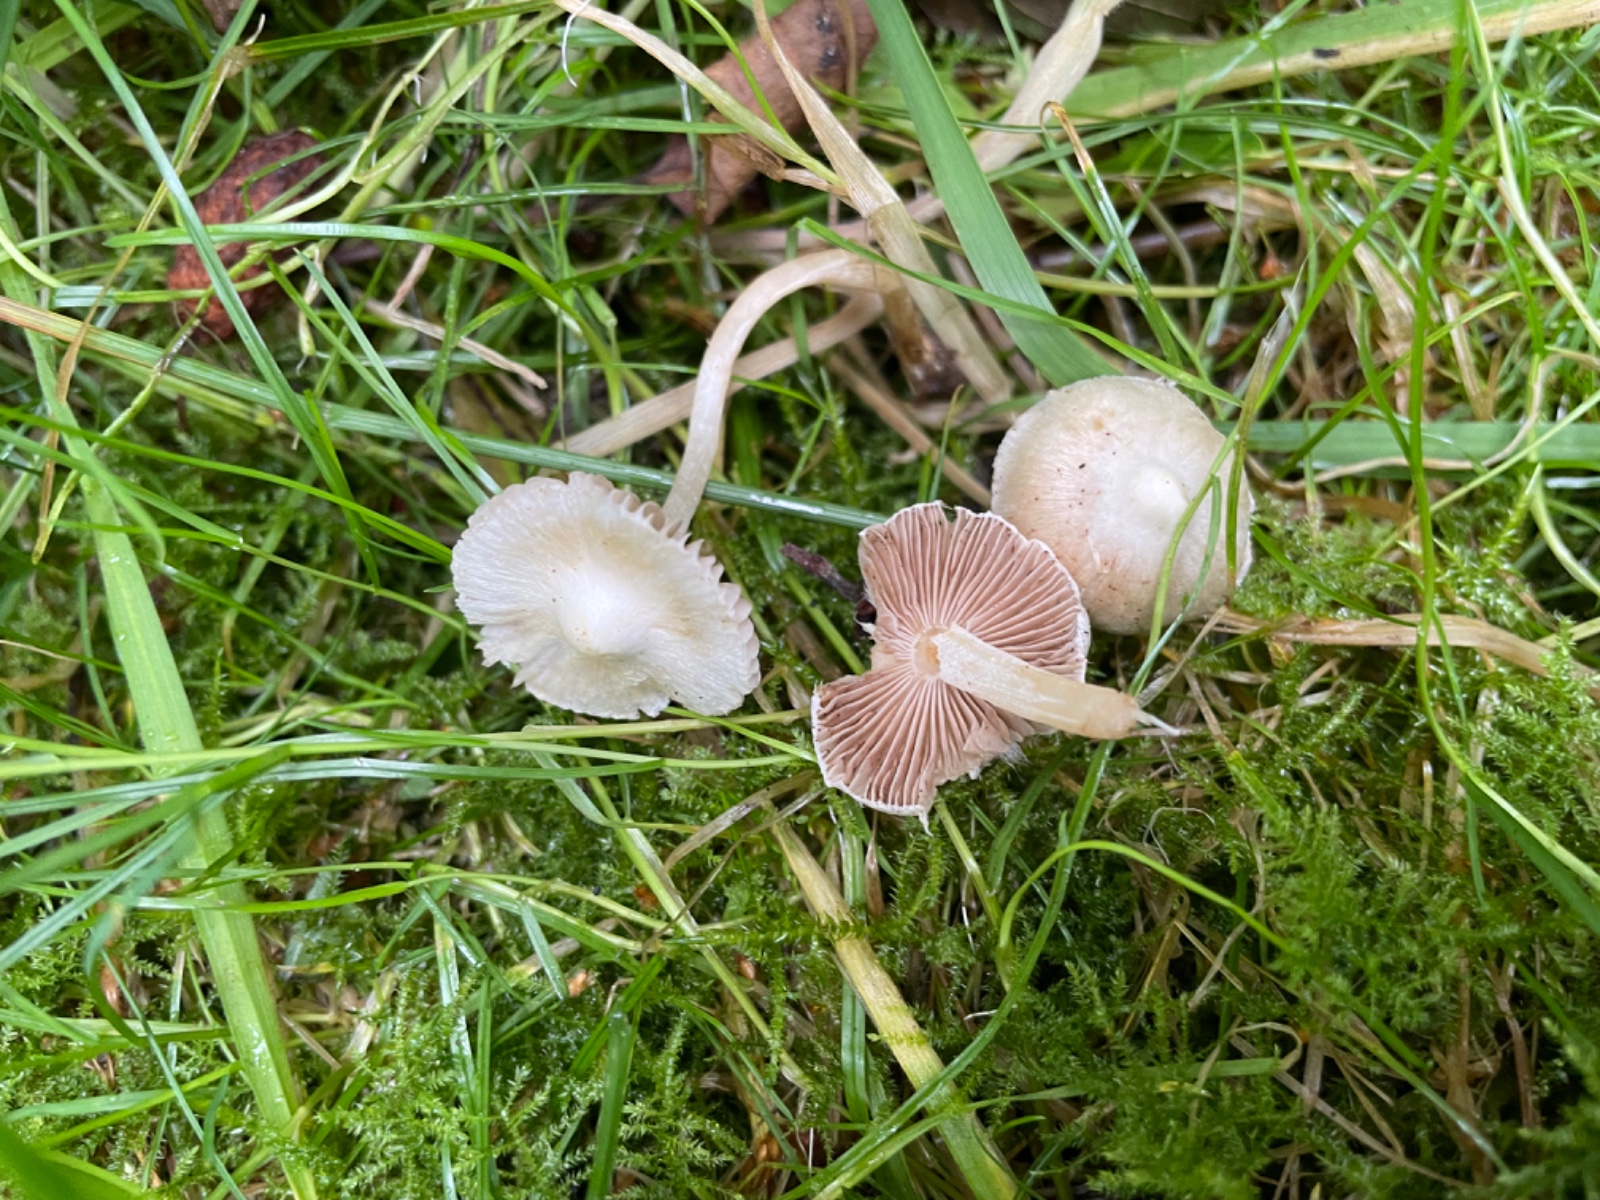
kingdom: Fungi
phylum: Basidiomycota
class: Agaricomycetes
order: Agaricales
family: Inocybaceae
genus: Inocybe
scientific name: Inocybe
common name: almindelig trævlhat
